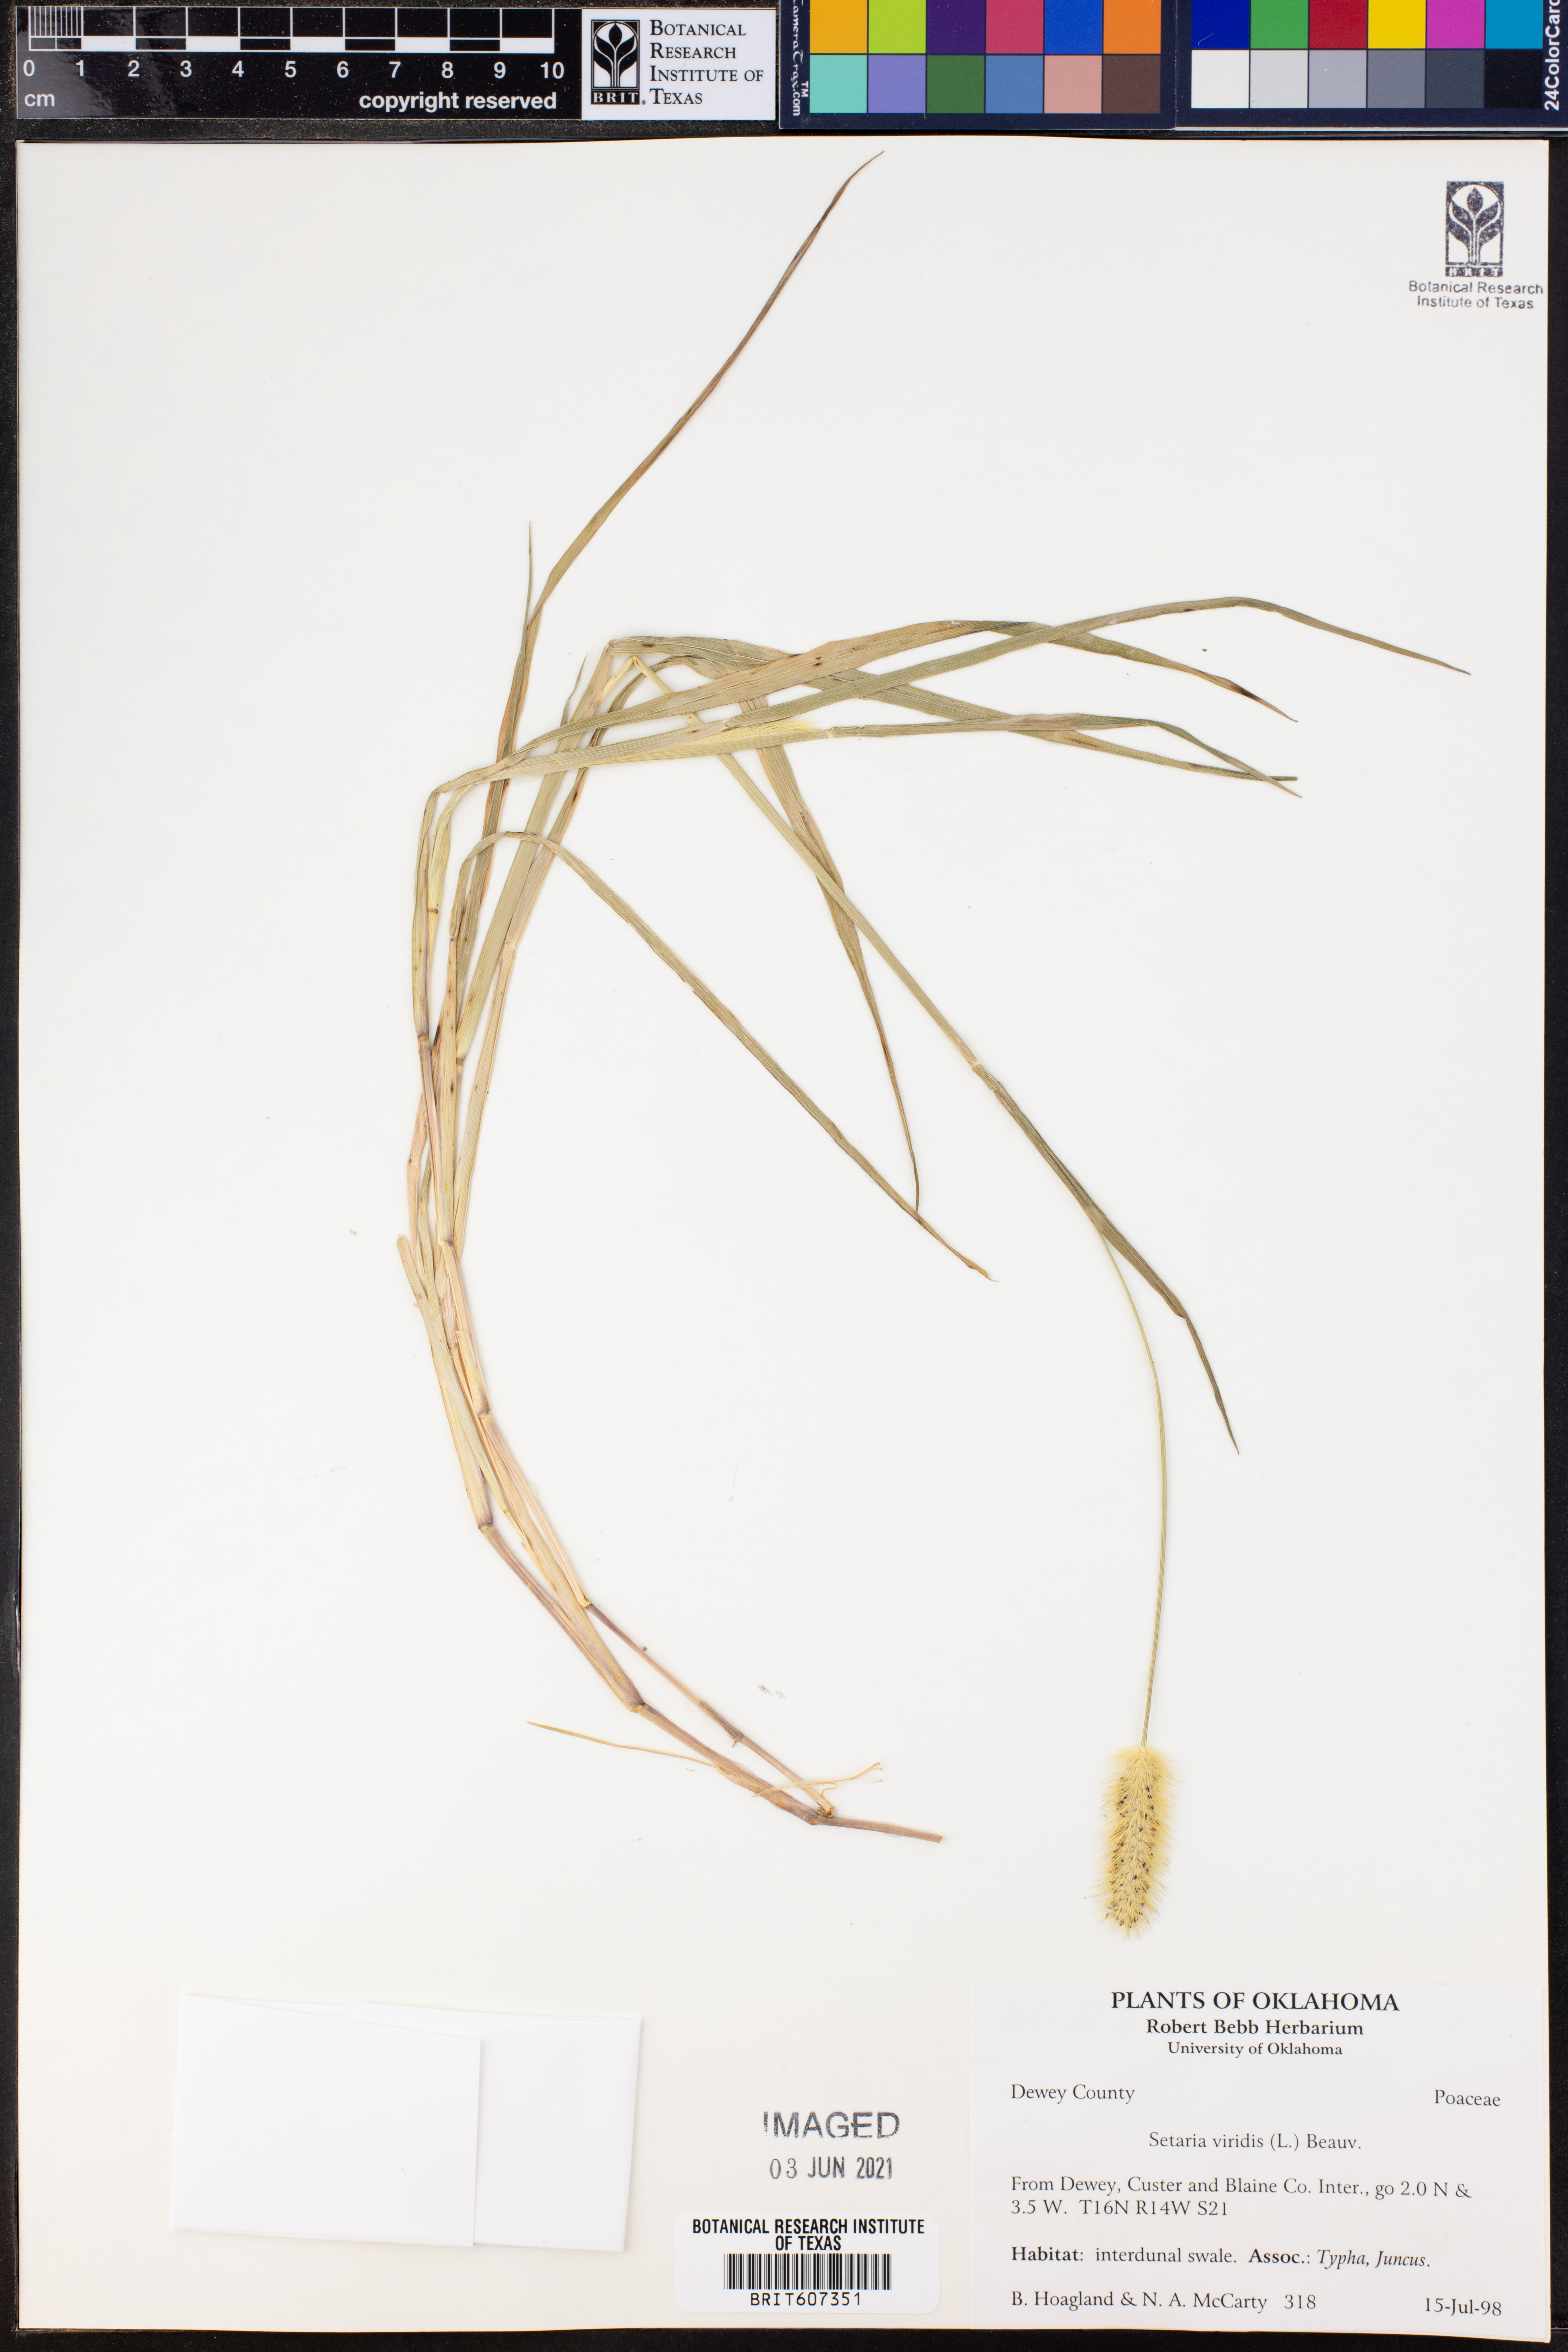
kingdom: Plantae
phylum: Tracheophyta
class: Liliopsida
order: Poales
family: Poaceae
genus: Setaria
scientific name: Setaria viridis
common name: Green bristlegrass
